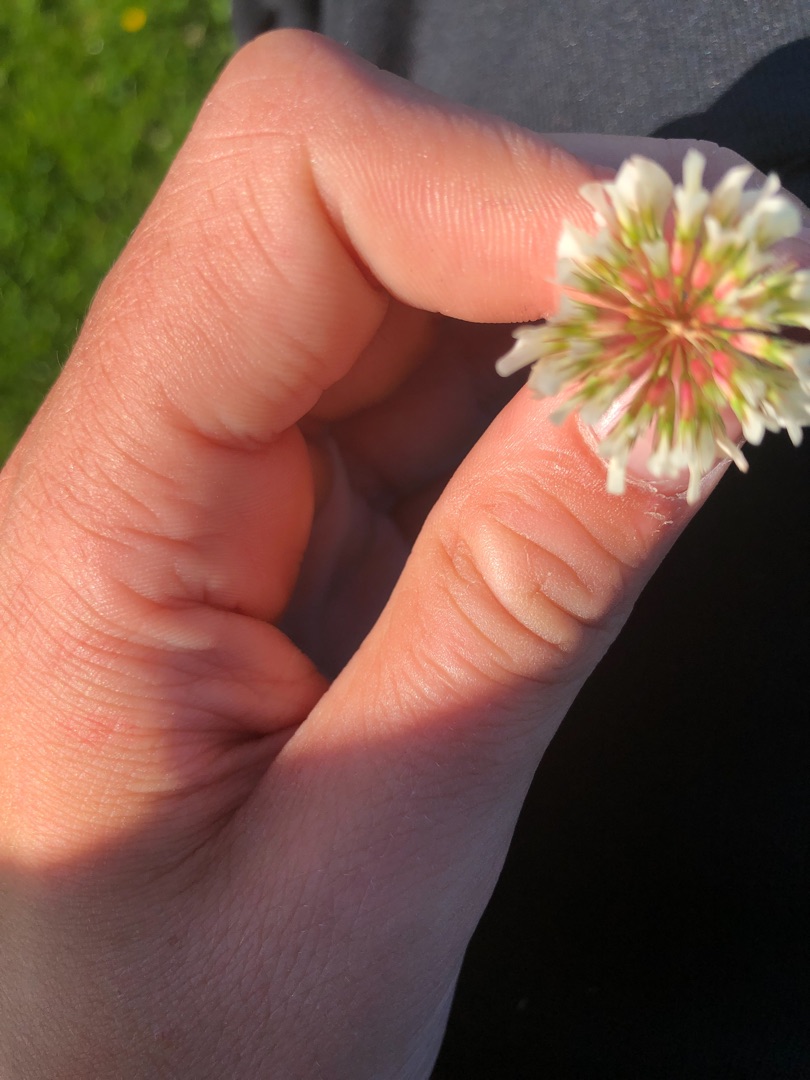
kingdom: Plantae
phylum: Tracheophyta
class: Magnoliopsida
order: Fabales
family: Fabaceae
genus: Trifolium
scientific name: Trifolium repens
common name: Hvid-kløver
